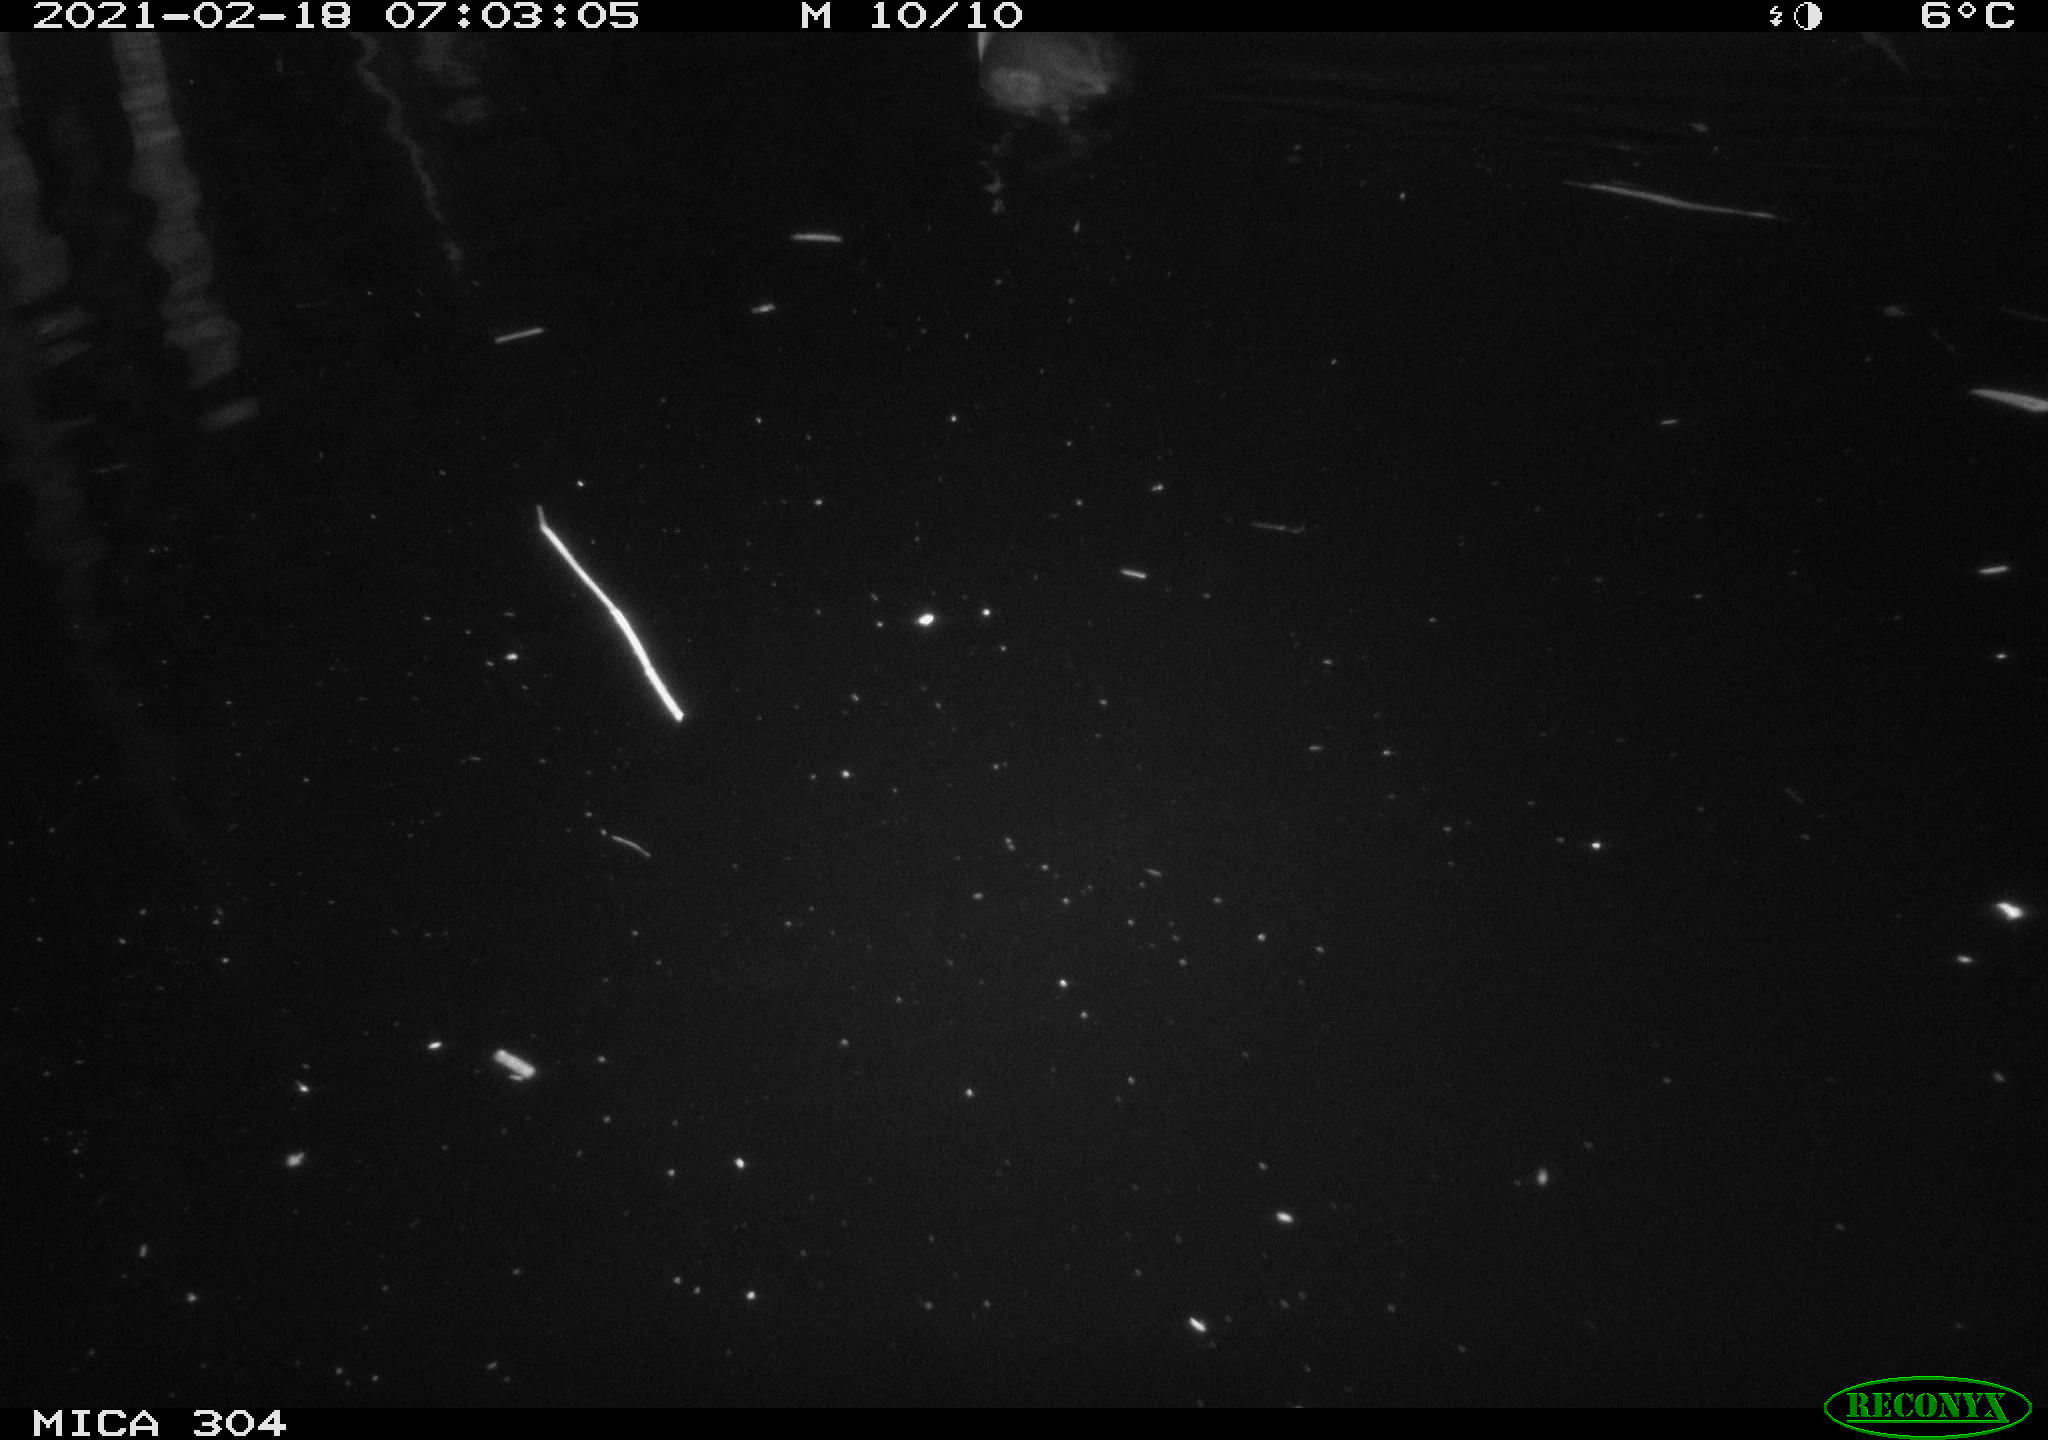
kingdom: Animalia
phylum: Chordata
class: Aves
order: Gruiformes
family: Rallidae
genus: Fulica
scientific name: Fulica atra
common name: Eurasian coot
